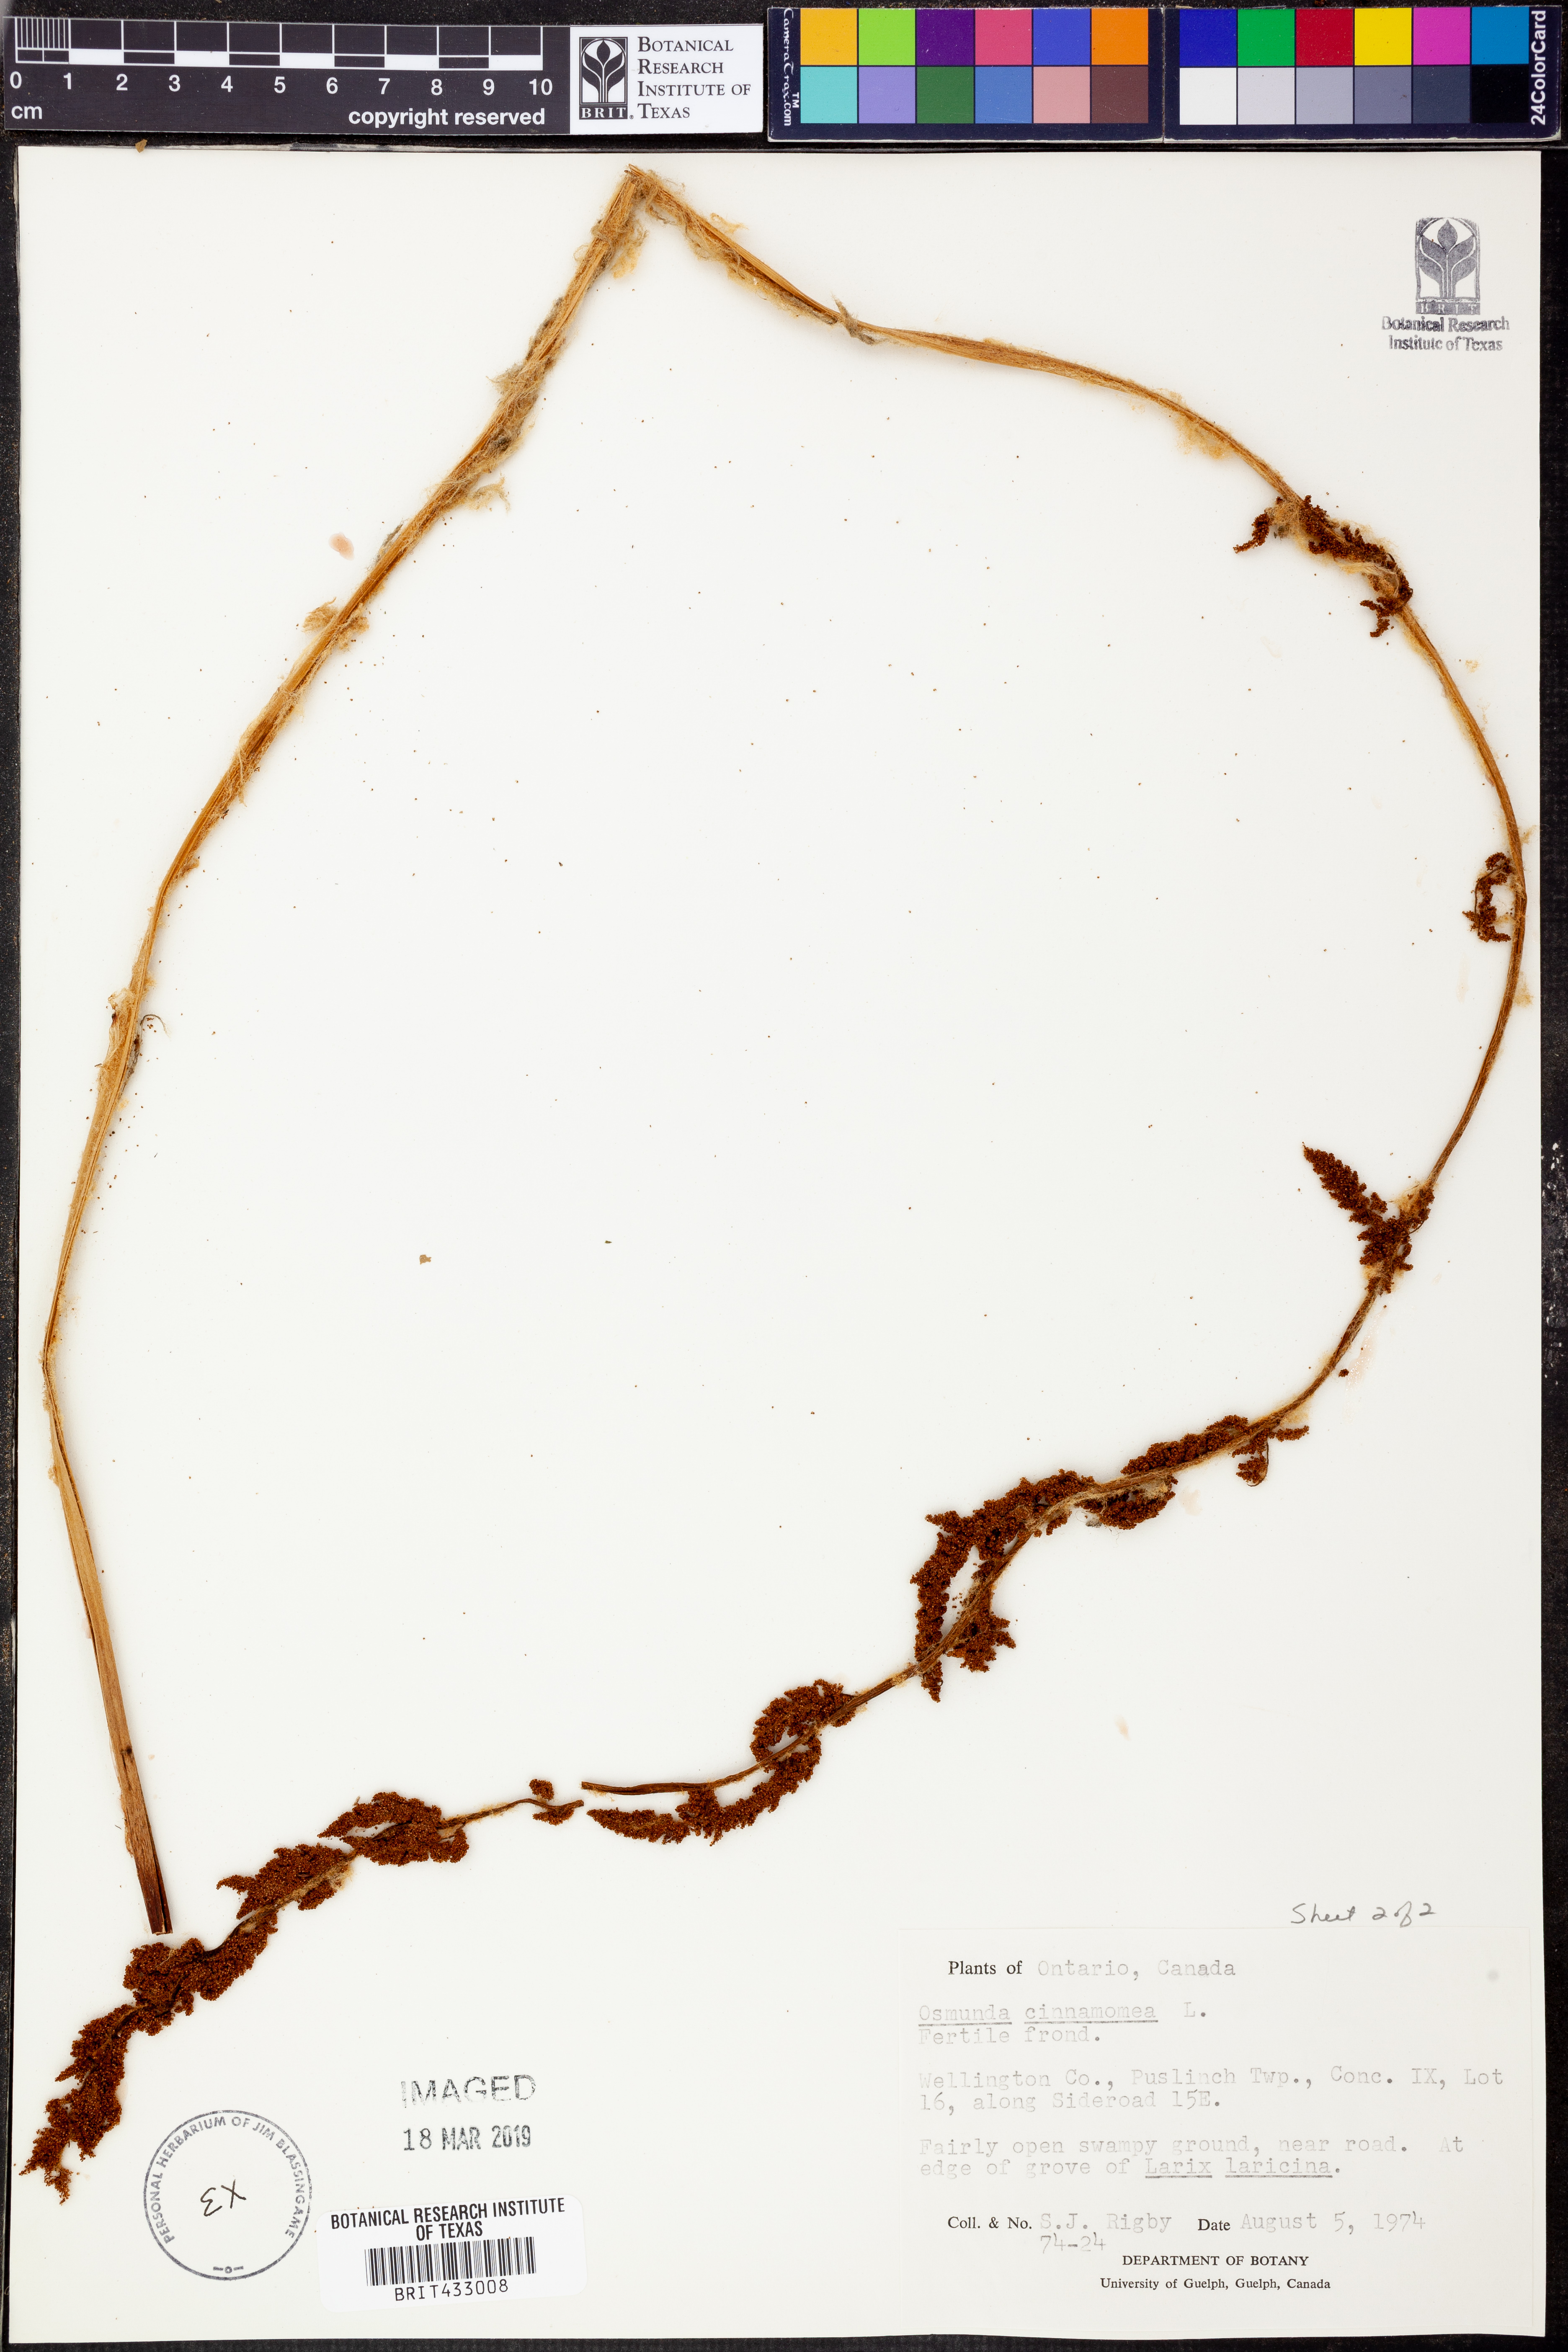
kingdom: Plantae
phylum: Tracheophyta
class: Polypodiopsida
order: Osmundales
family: Osmundaceae
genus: Osmundastrum
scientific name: Osmundastrum cinnamomeum
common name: Cinnamon fern
